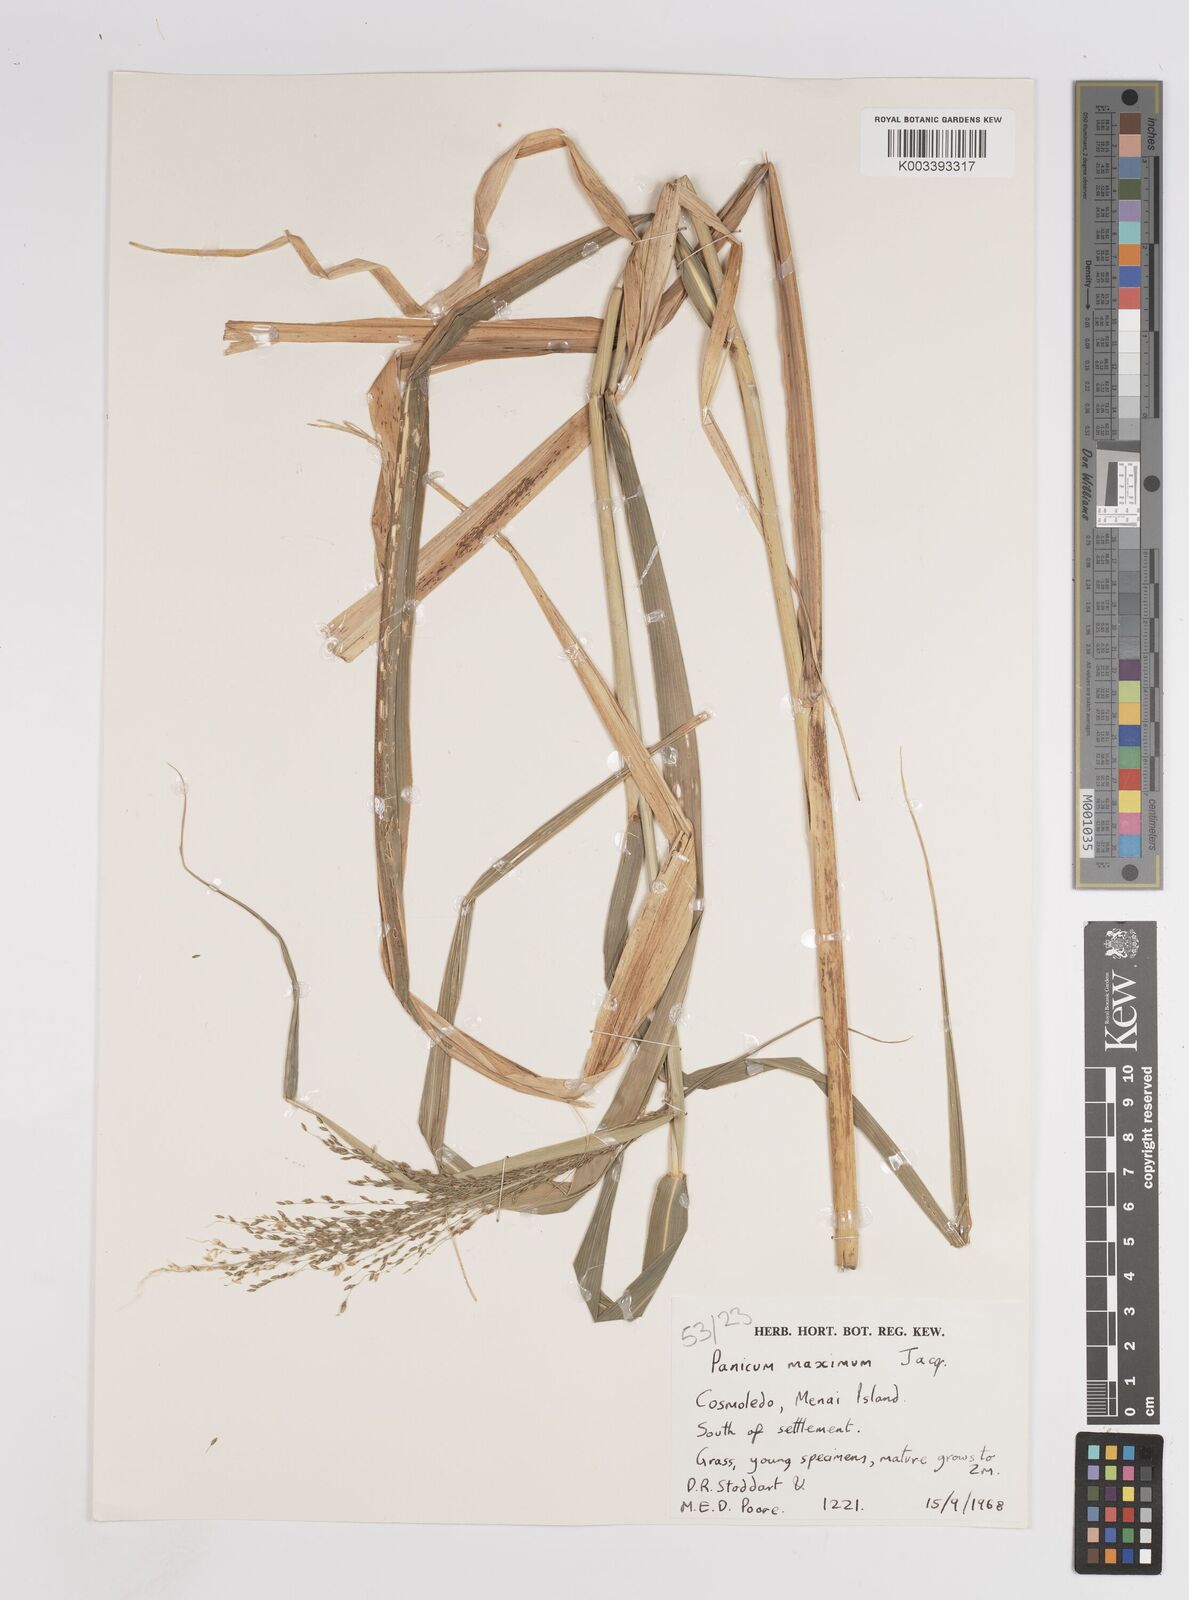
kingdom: Plantae
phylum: Tracheophyta
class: Liliopsida
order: Poales
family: Poaceae
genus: Megathyrsus
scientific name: Megathyrsus maximus
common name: Guineagrass
